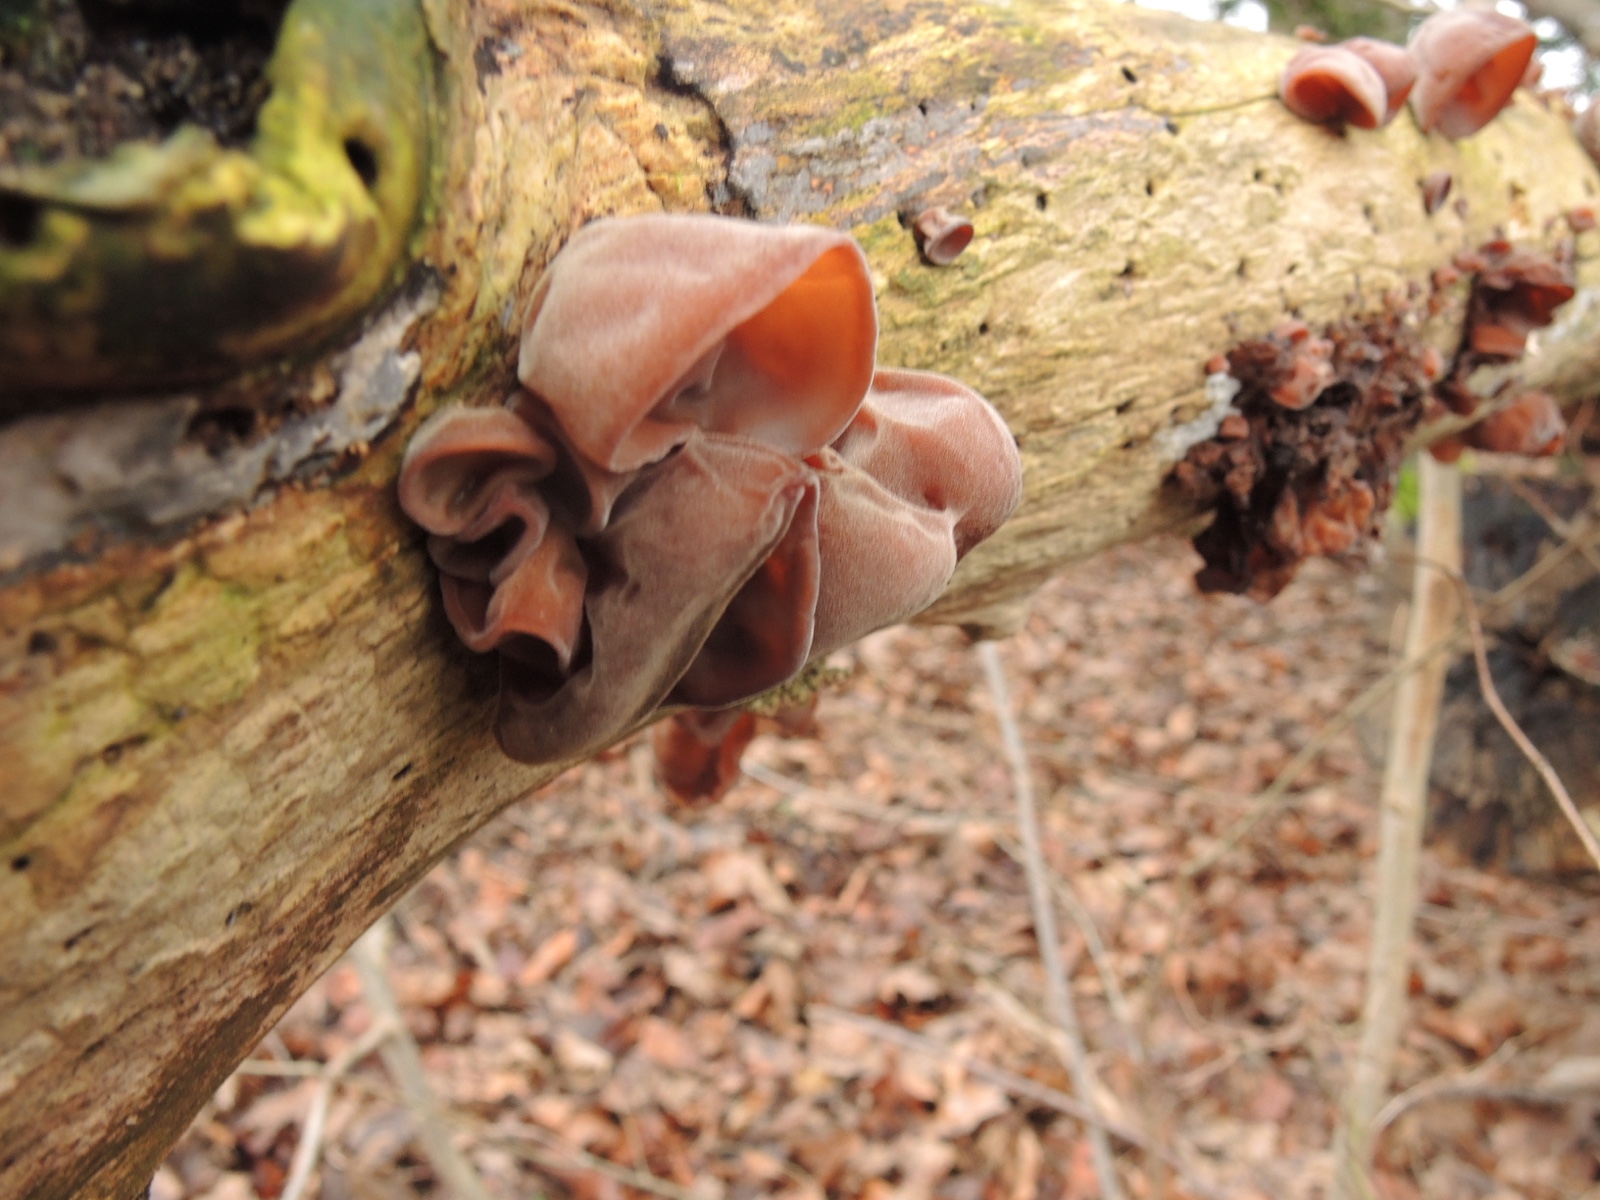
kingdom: Fungi
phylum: Basidiomycota
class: Agaricomycetes
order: Auriculariales
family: Auriculariaceae
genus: Auricularia
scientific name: Auricularia auricula-judae
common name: almindelig judasøre
